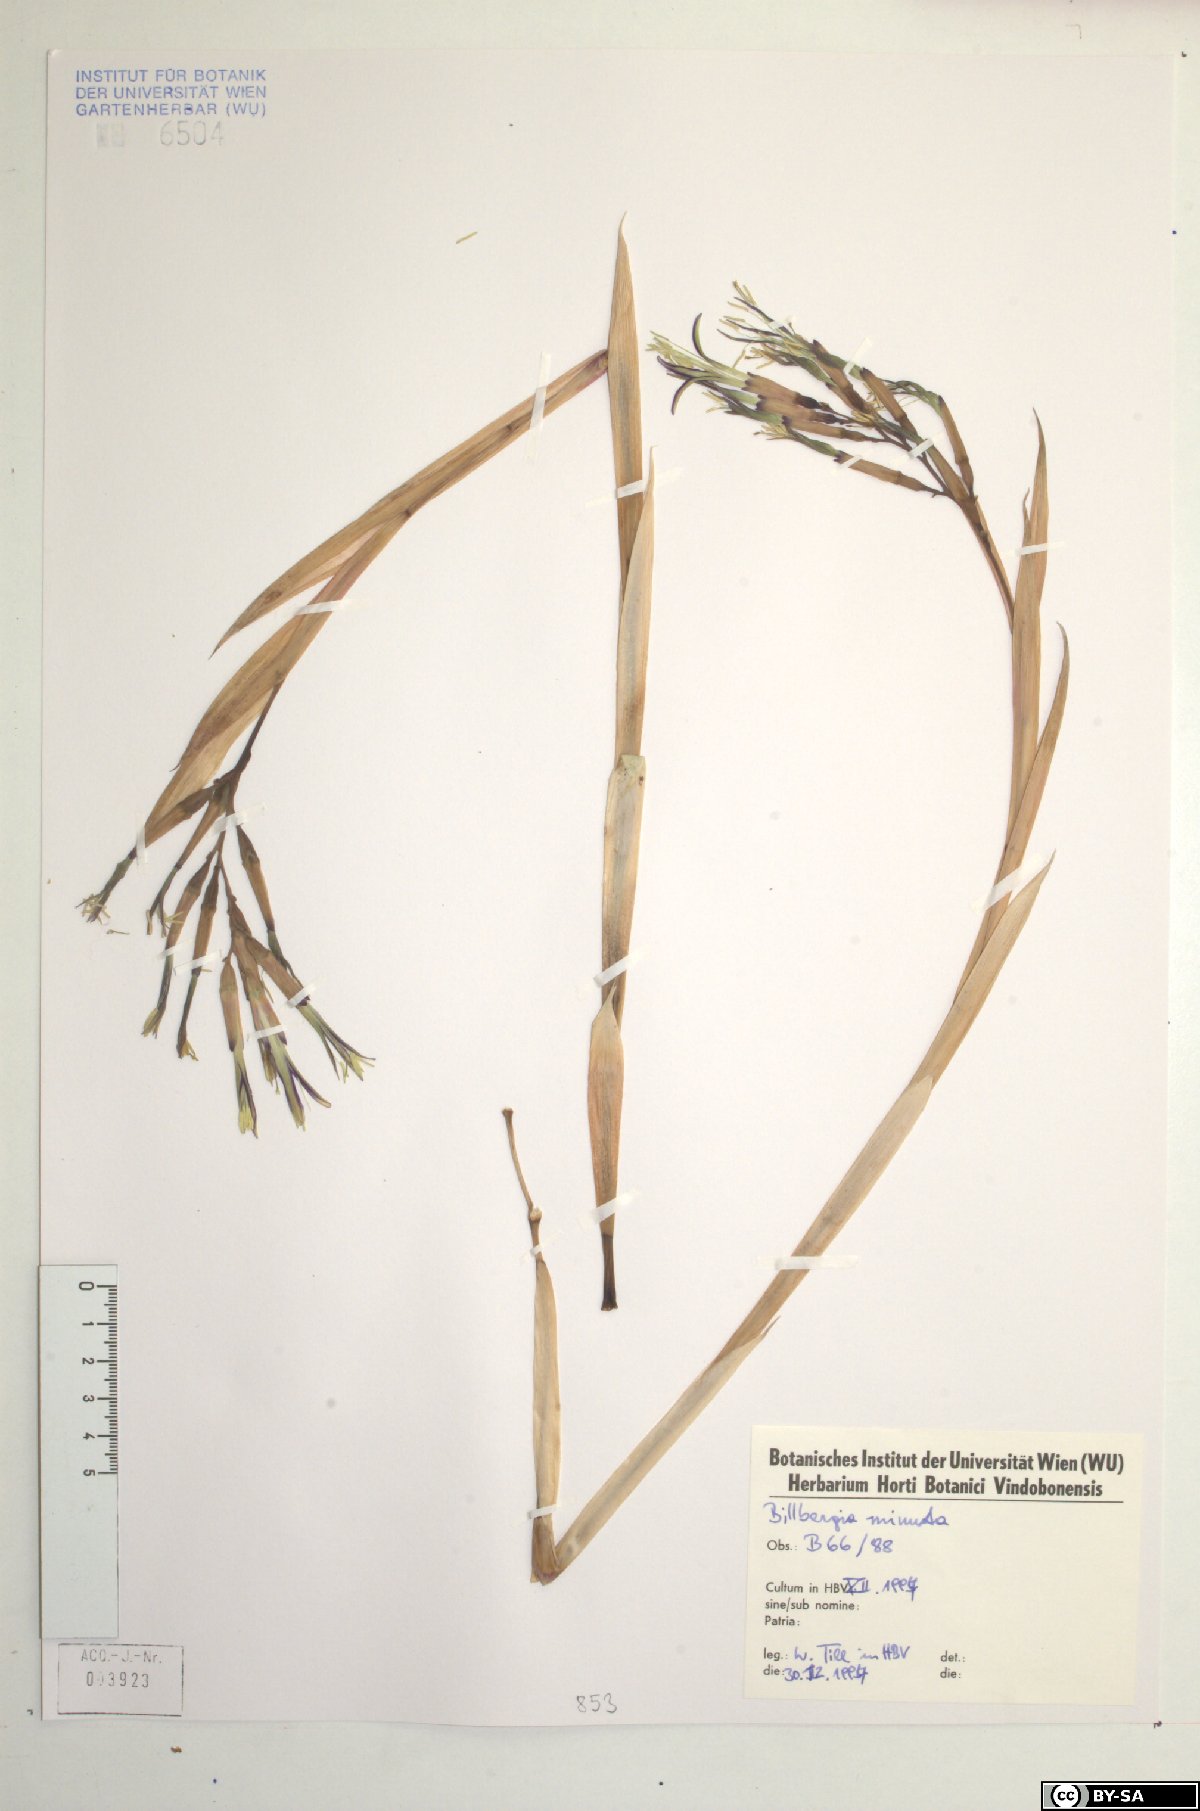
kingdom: Plantae
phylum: Tracheophyta
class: Liliopsida
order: Poales
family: Bromeliaceae
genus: Billbergia
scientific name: Billbergia nutans
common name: Friendship-plant
